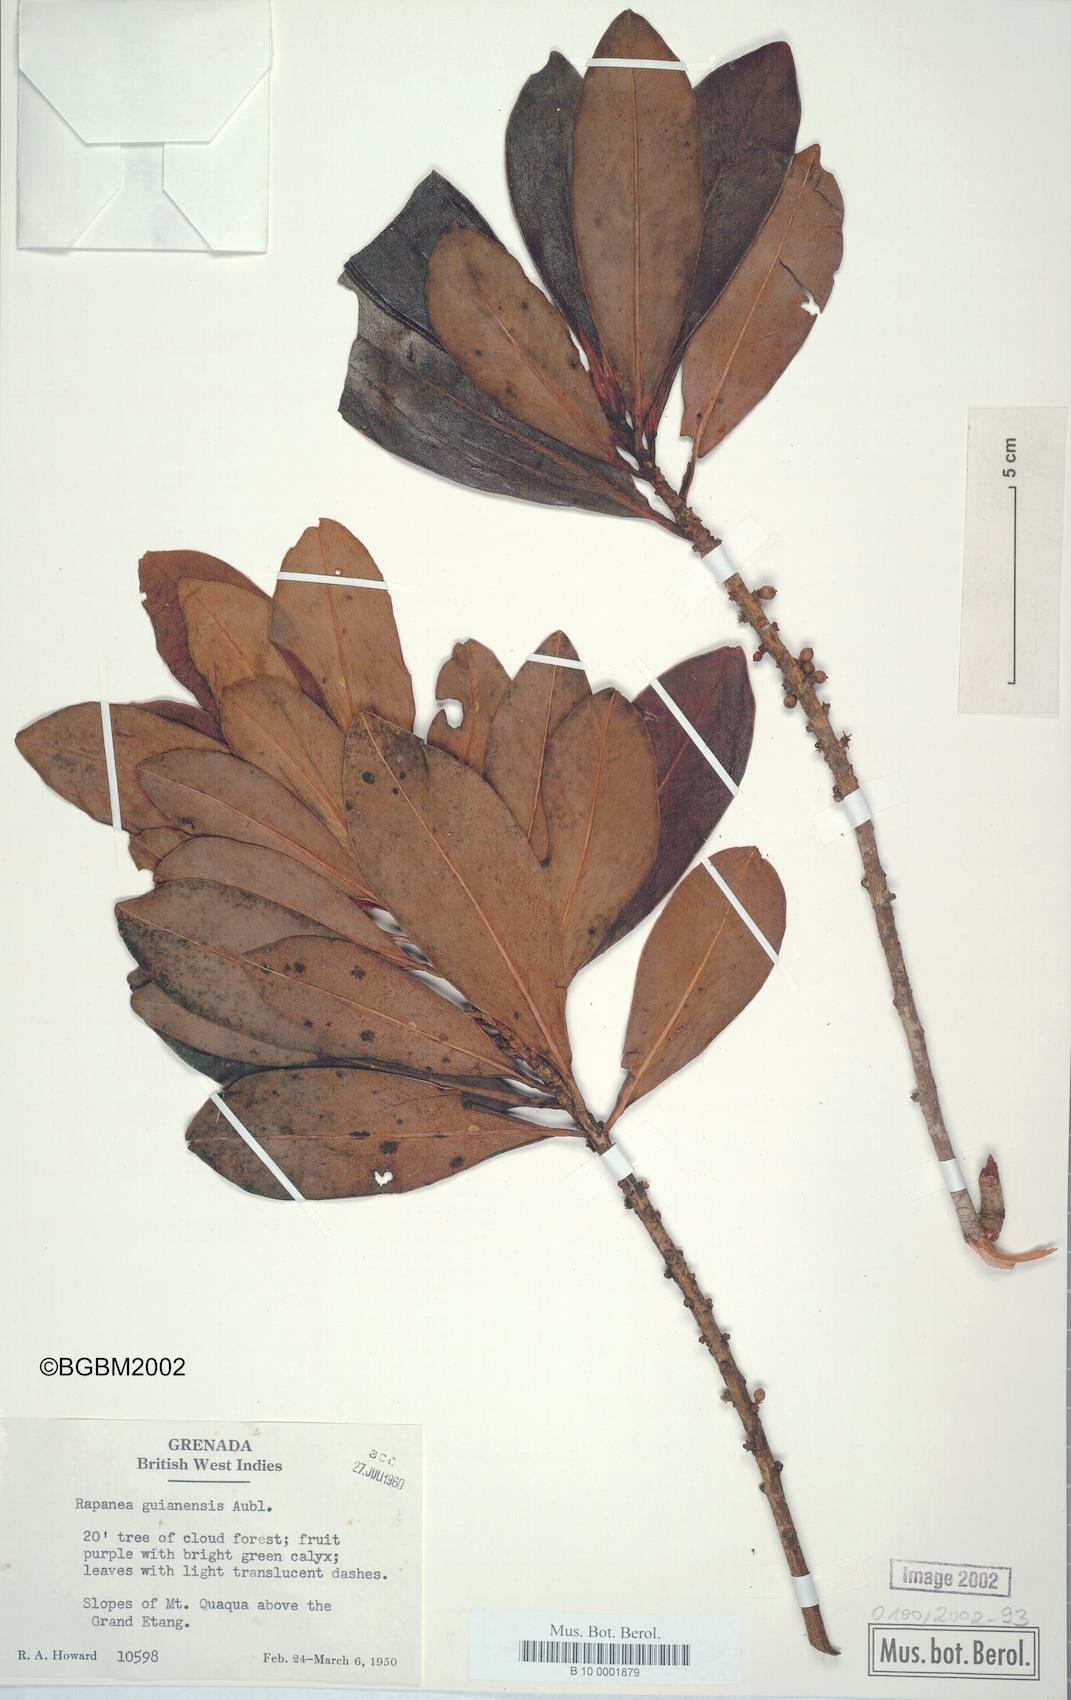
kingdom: Plantae
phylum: Tracheophyta
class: Magnoliopsida
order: Ericales
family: Primulaceae
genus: Myrsine
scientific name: Myrsine guianensis
